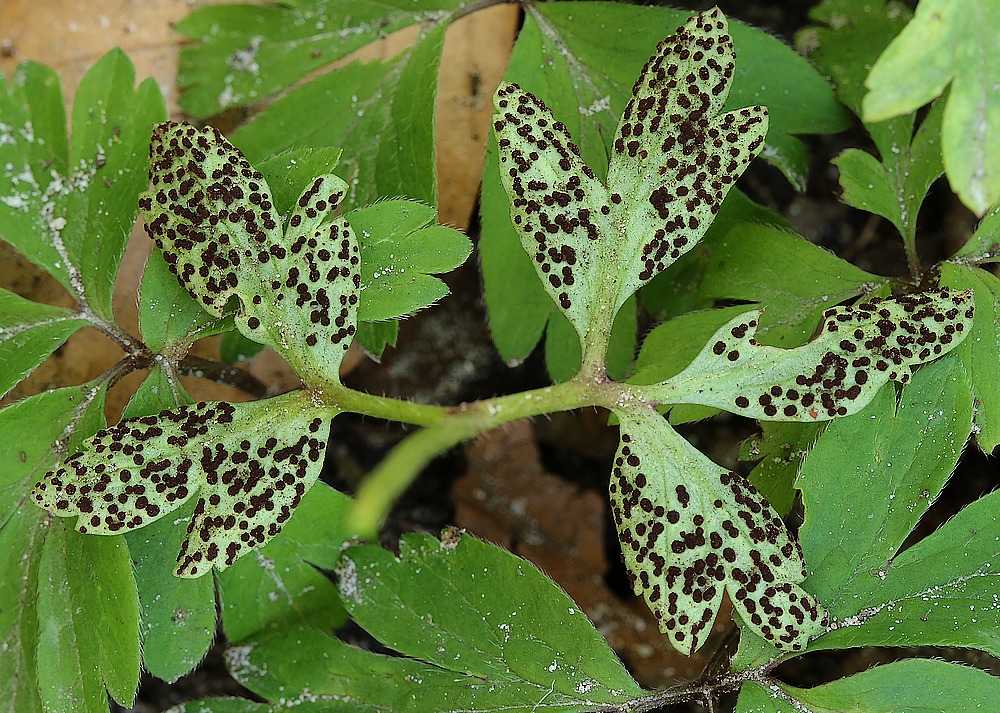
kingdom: Fungi
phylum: Basidiomycota
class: Pucciniomycetes
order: Pucciniales
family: Tranzscheliaceae
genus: Tranzschelia
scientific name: Tranzschelia anemones
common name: anemone-knæksporerust
